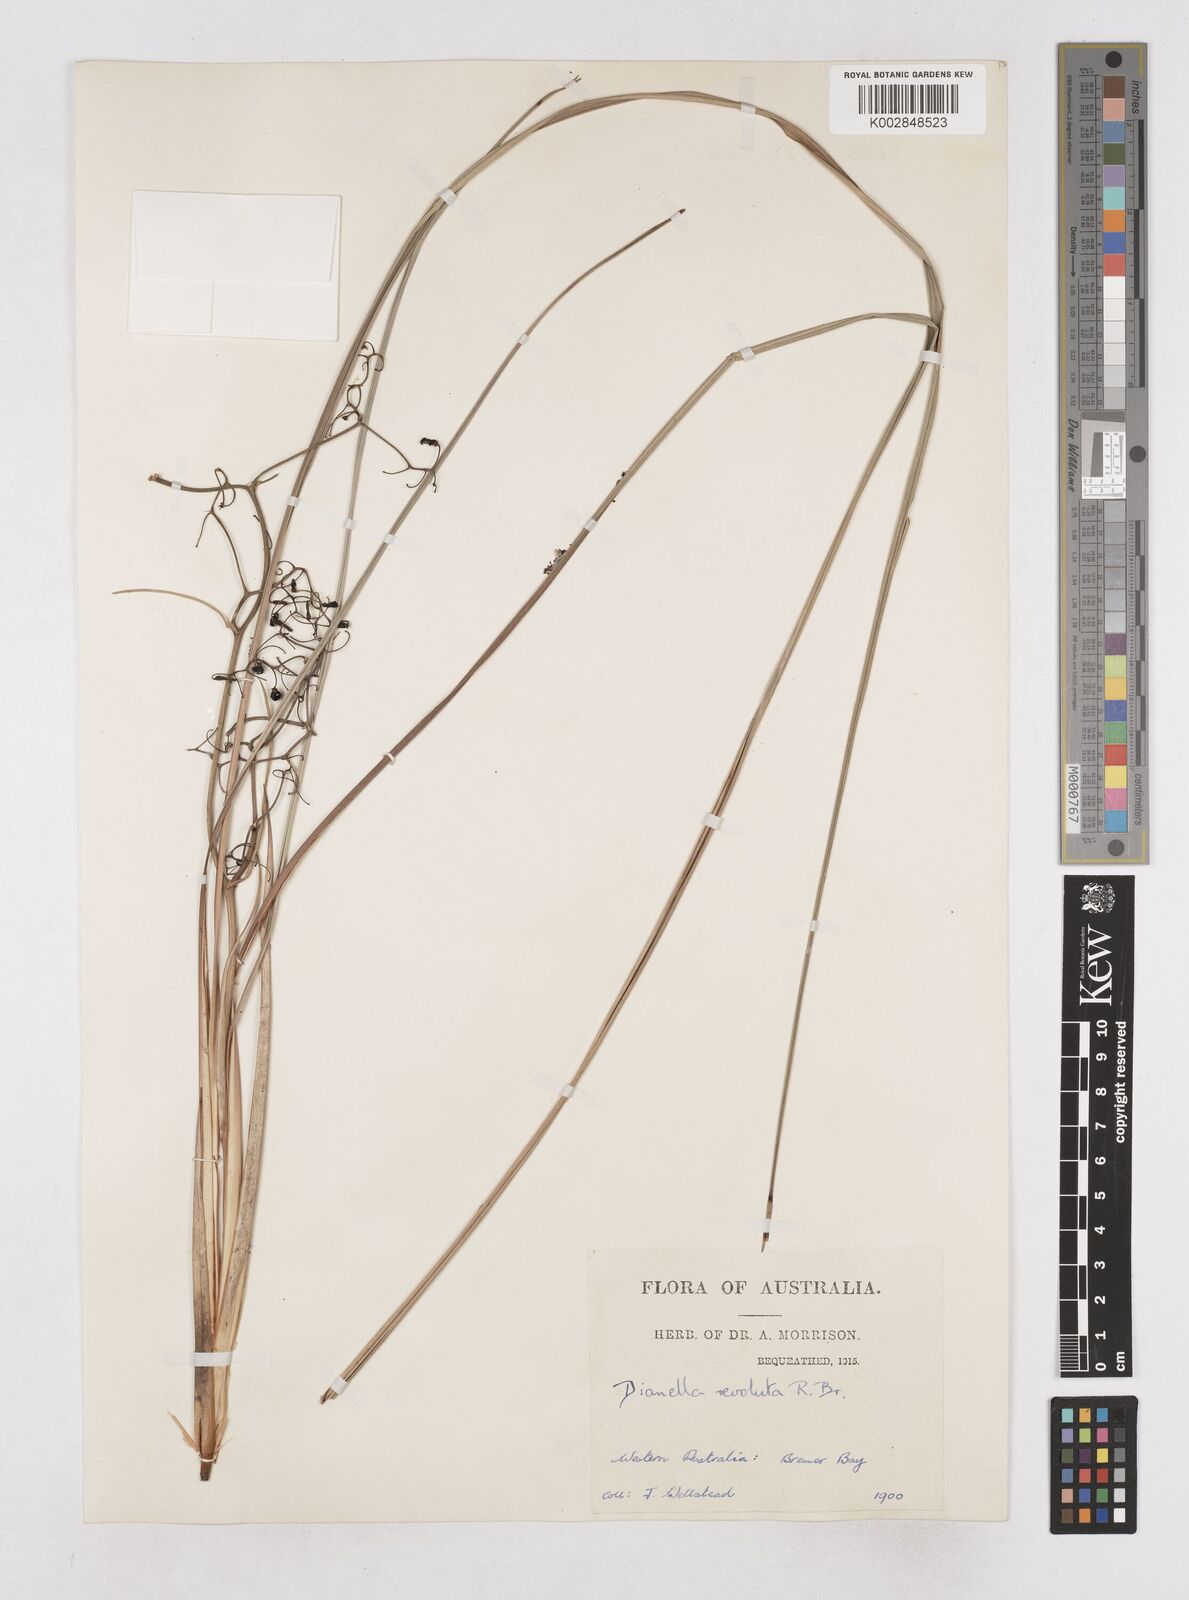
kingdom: Plantae
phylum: Tracheophyta
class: Liliopsida
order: Asparagales
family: Asphodelaceae
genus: Dianella
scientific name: Dianella revoluta
